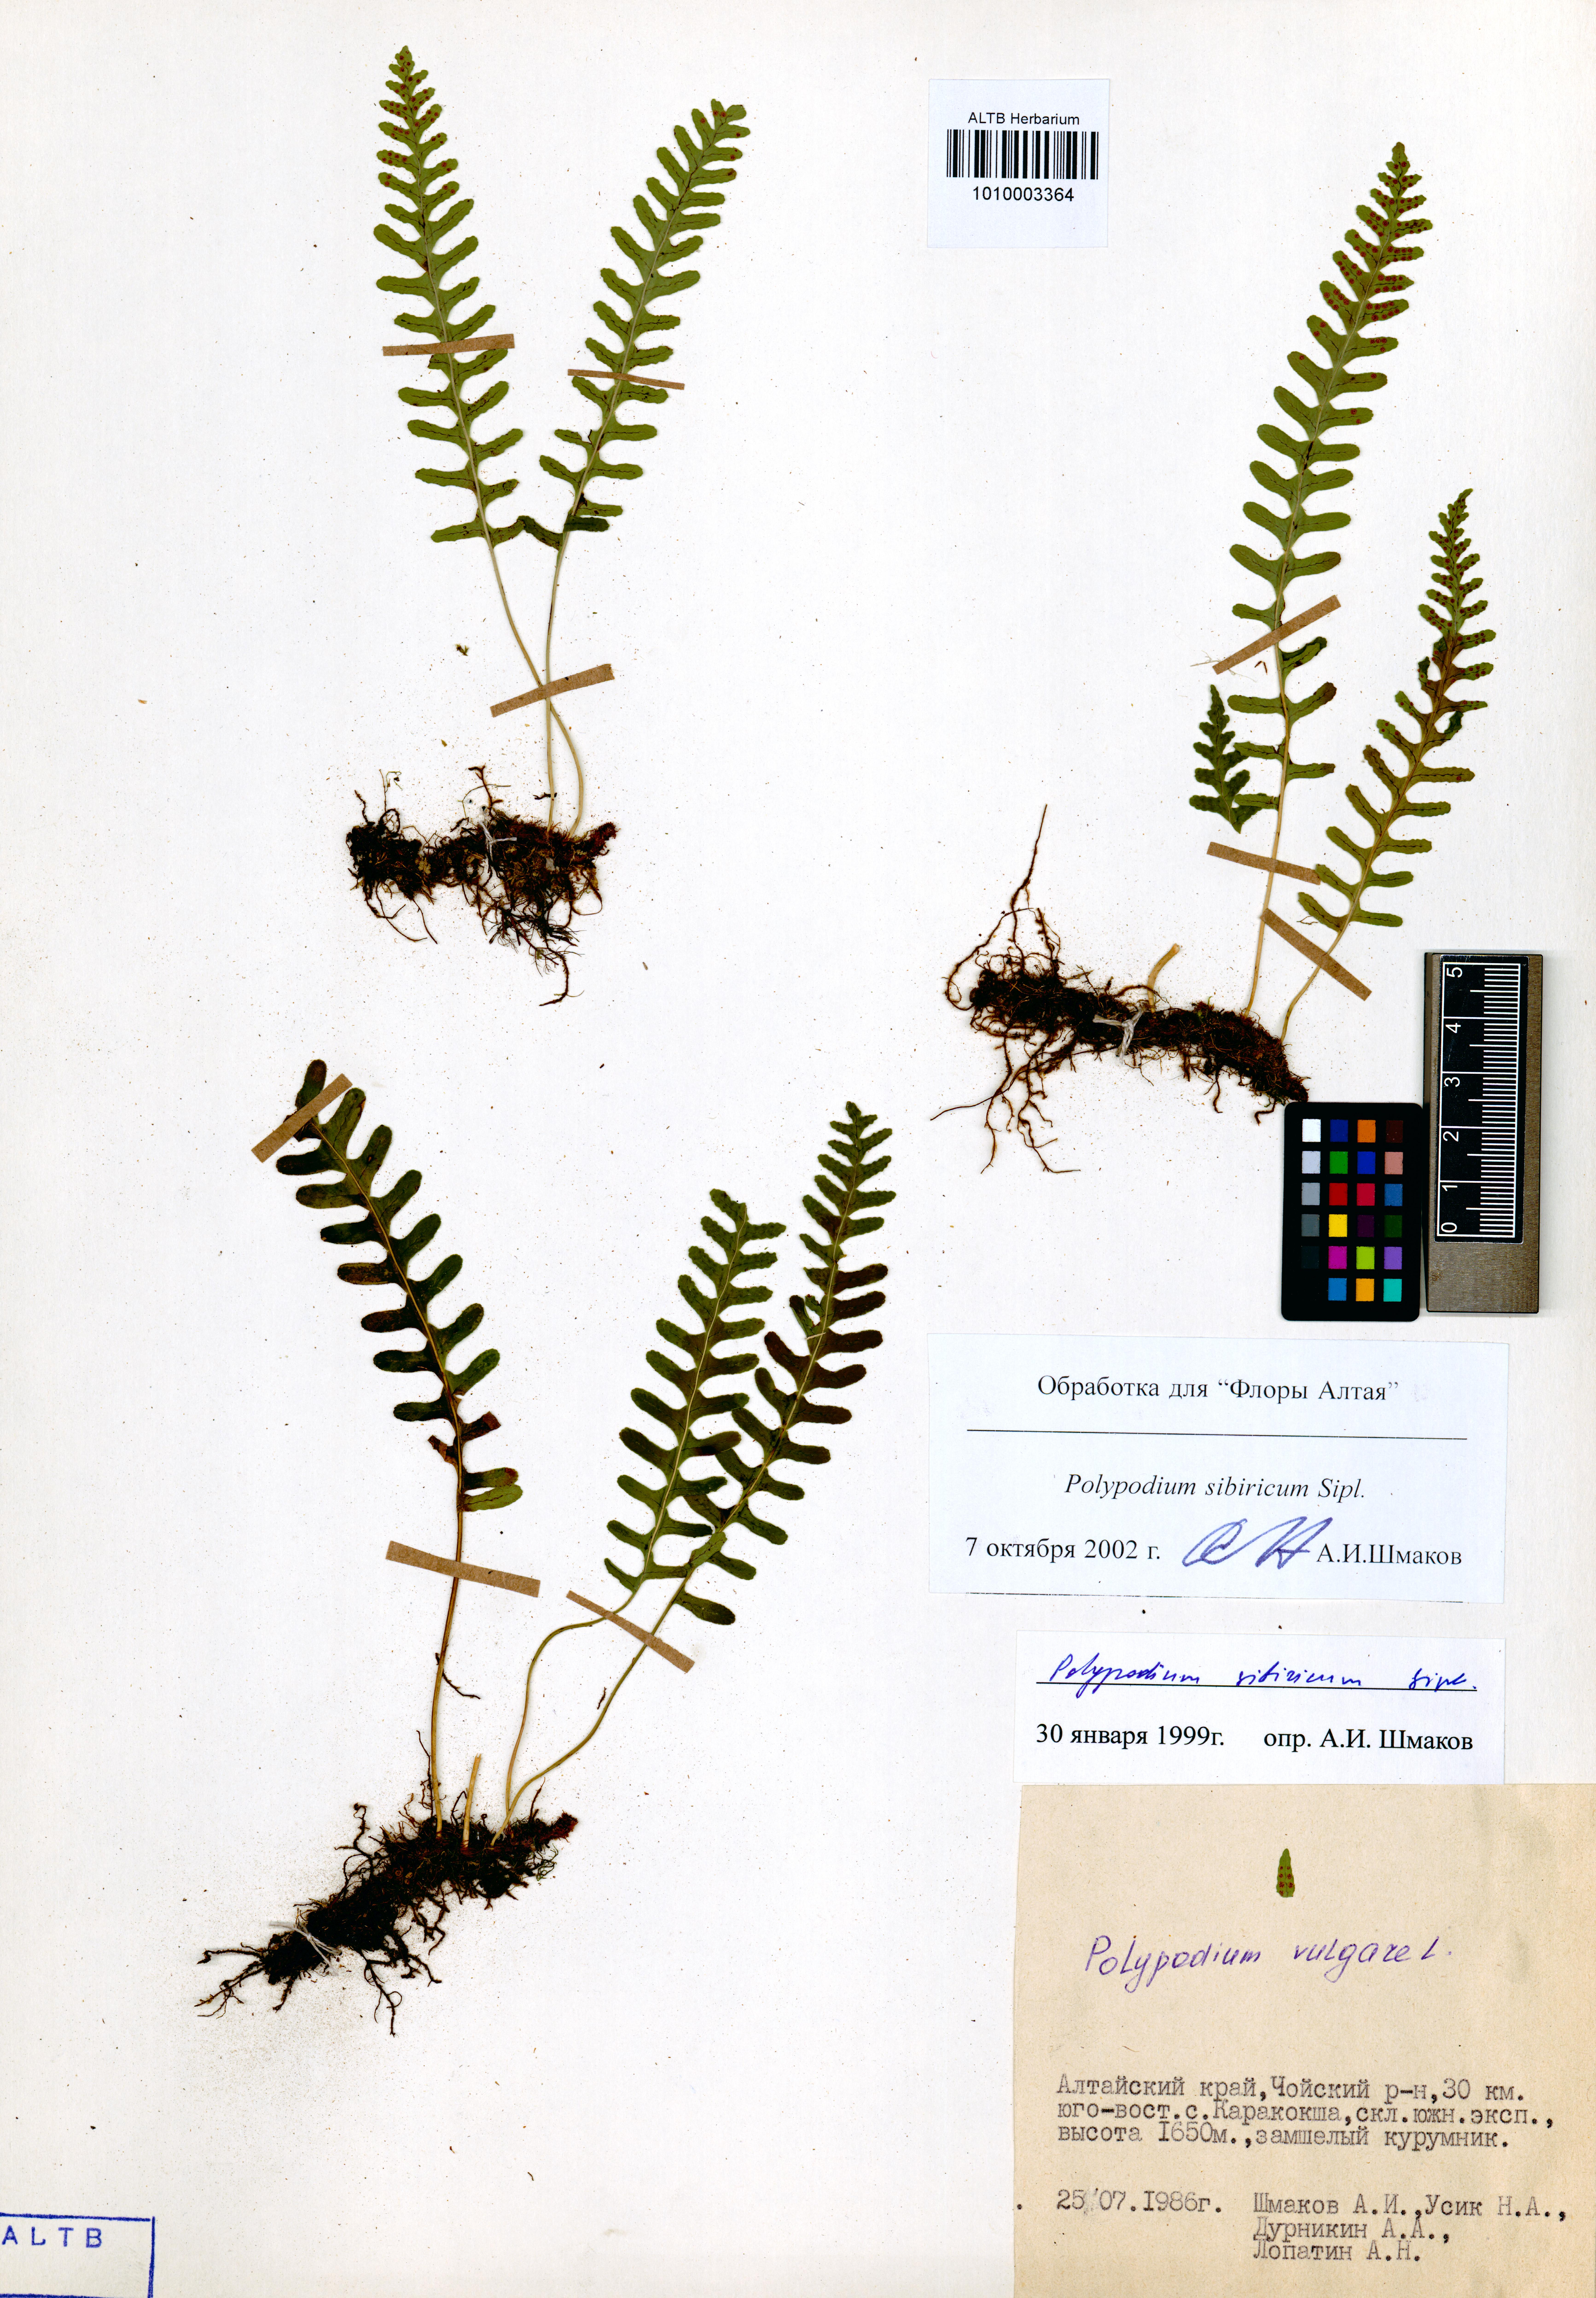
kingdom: Plantae
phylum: Tracheophyta
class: Polypodiopsida
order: Polypodiales
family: Polypodiaceae
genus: Polypodium
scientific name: Polypodium sibiricum
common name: Siberian polypody
